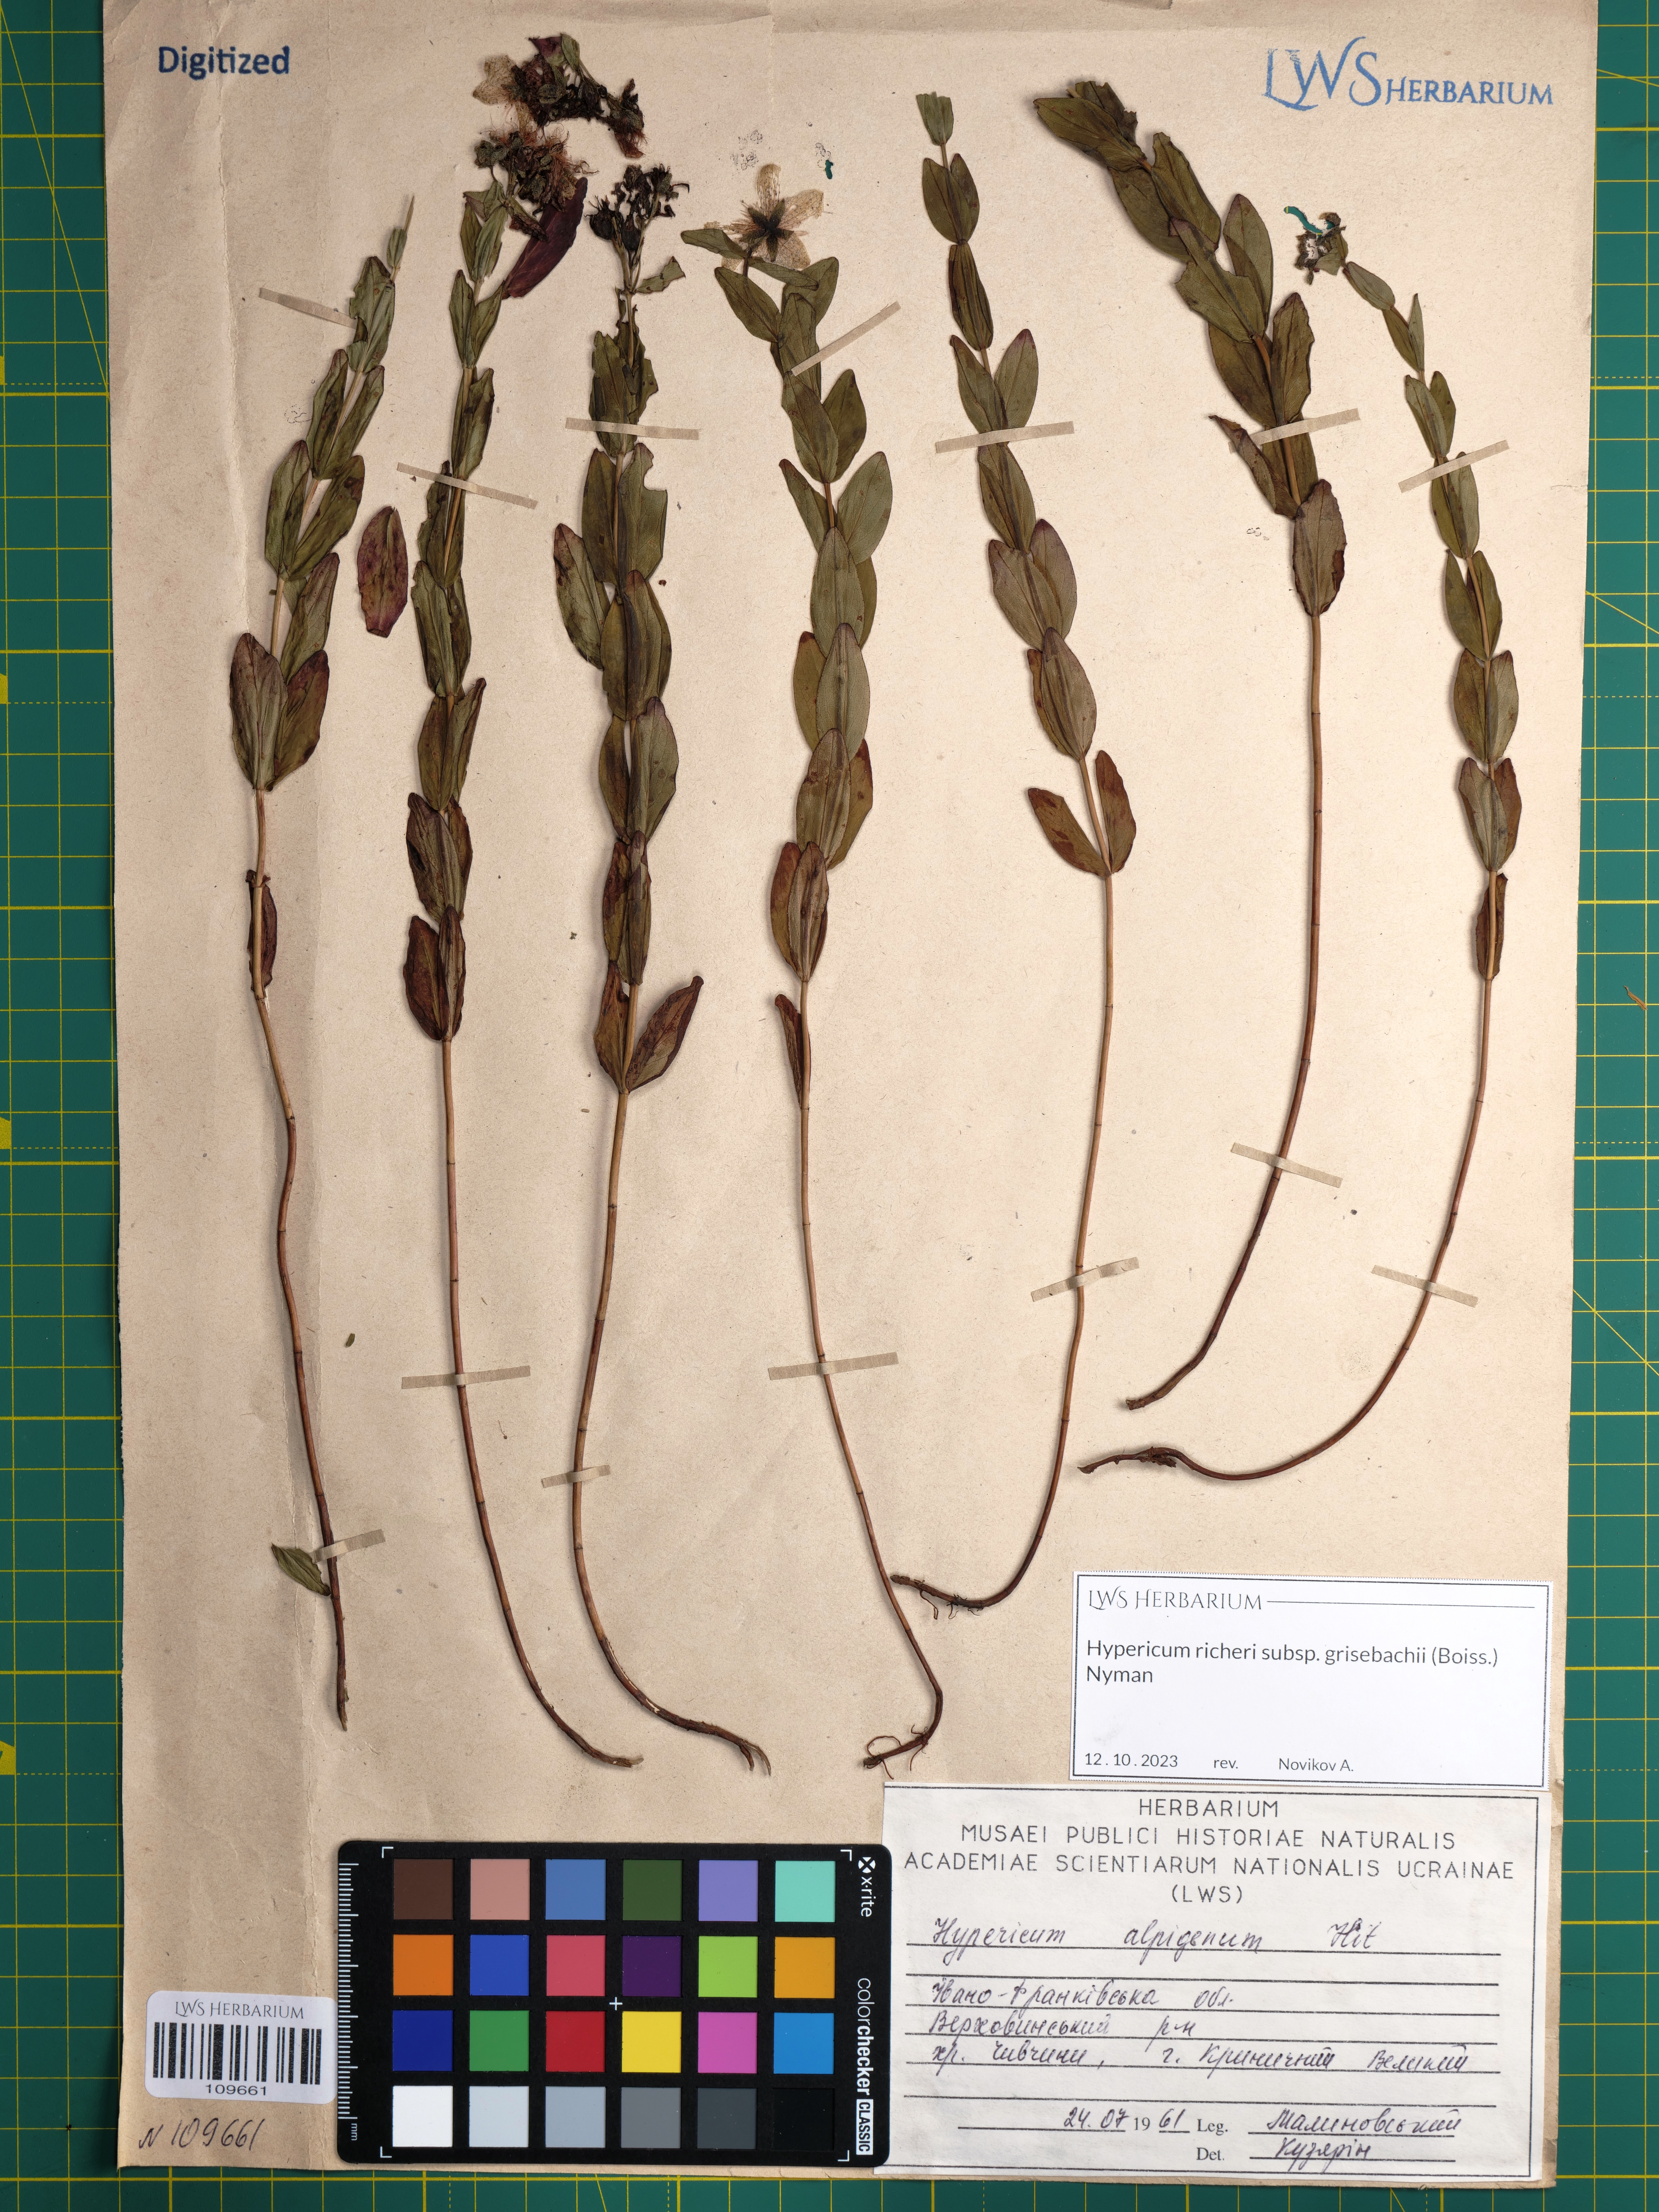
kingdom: Plantae
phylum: Tracheophyta
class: Magnoliopsida
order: Malpighiales
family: Hypericaceae
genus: Hypericum
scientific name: Hypericum richeri
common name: Alpine st john's-wort
